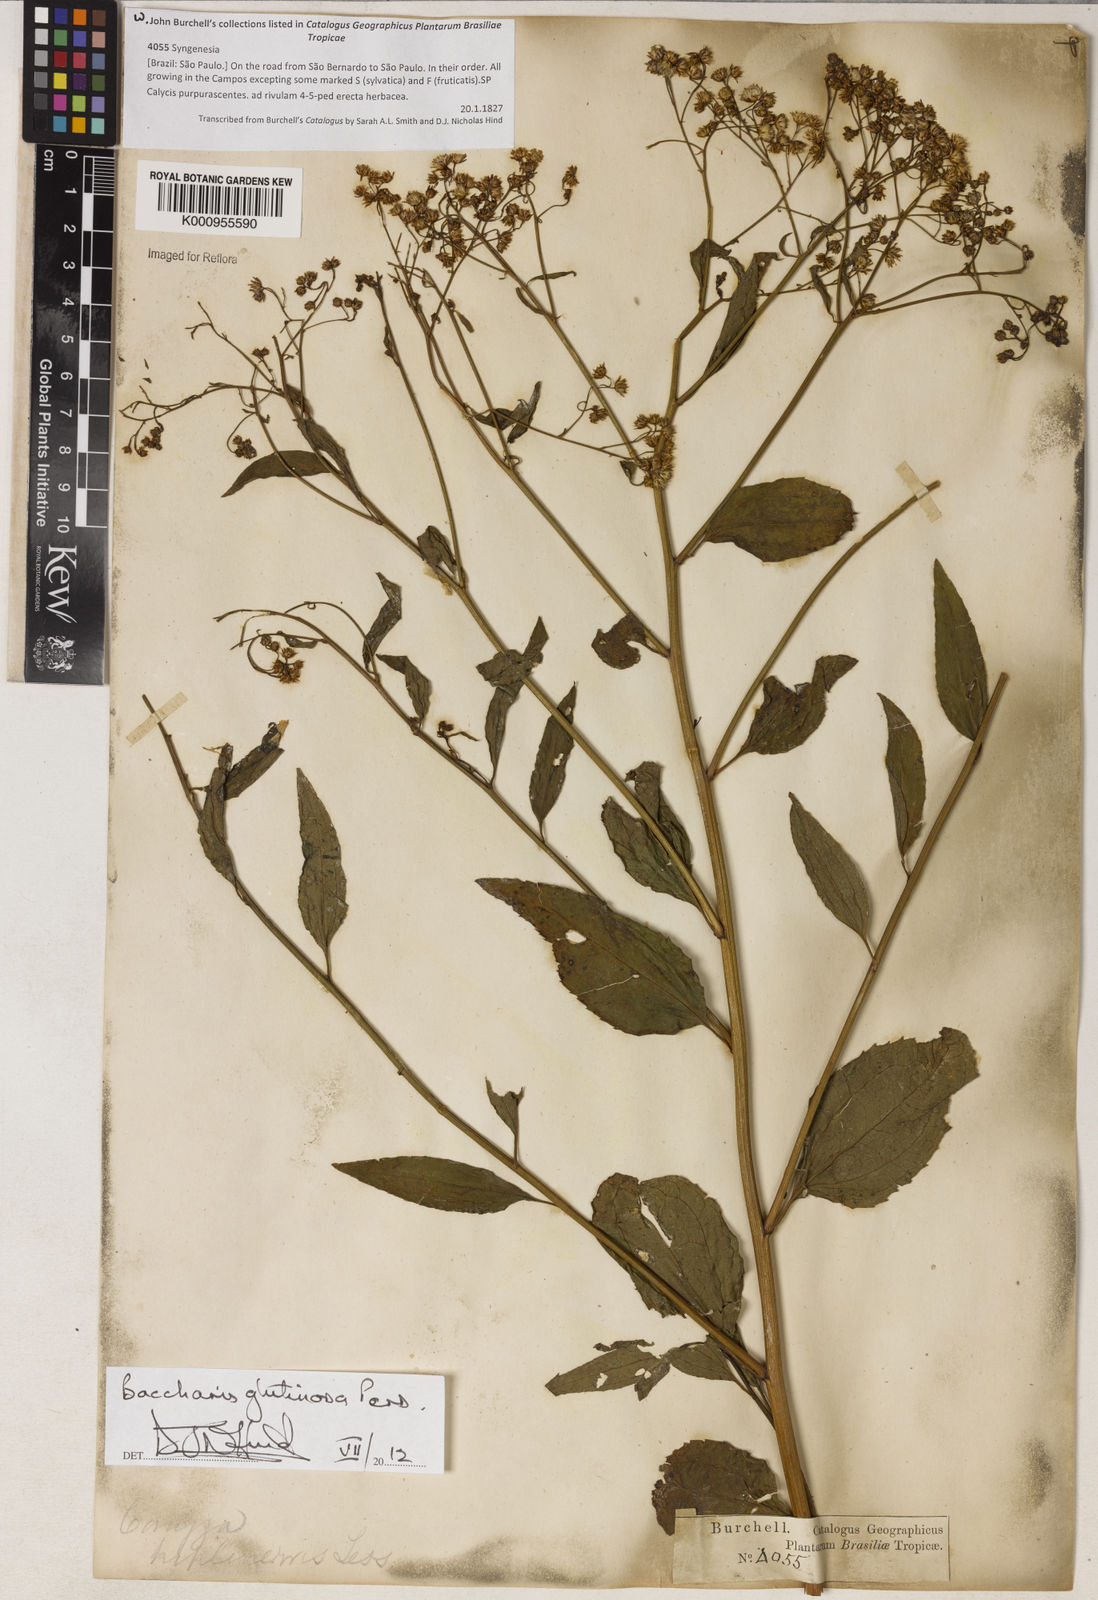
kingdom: Plantae
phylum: Tracheophyta
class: Magnoliopsida
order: Asterales
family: Asteraceae
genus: Baccharis
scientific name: Baccharis
